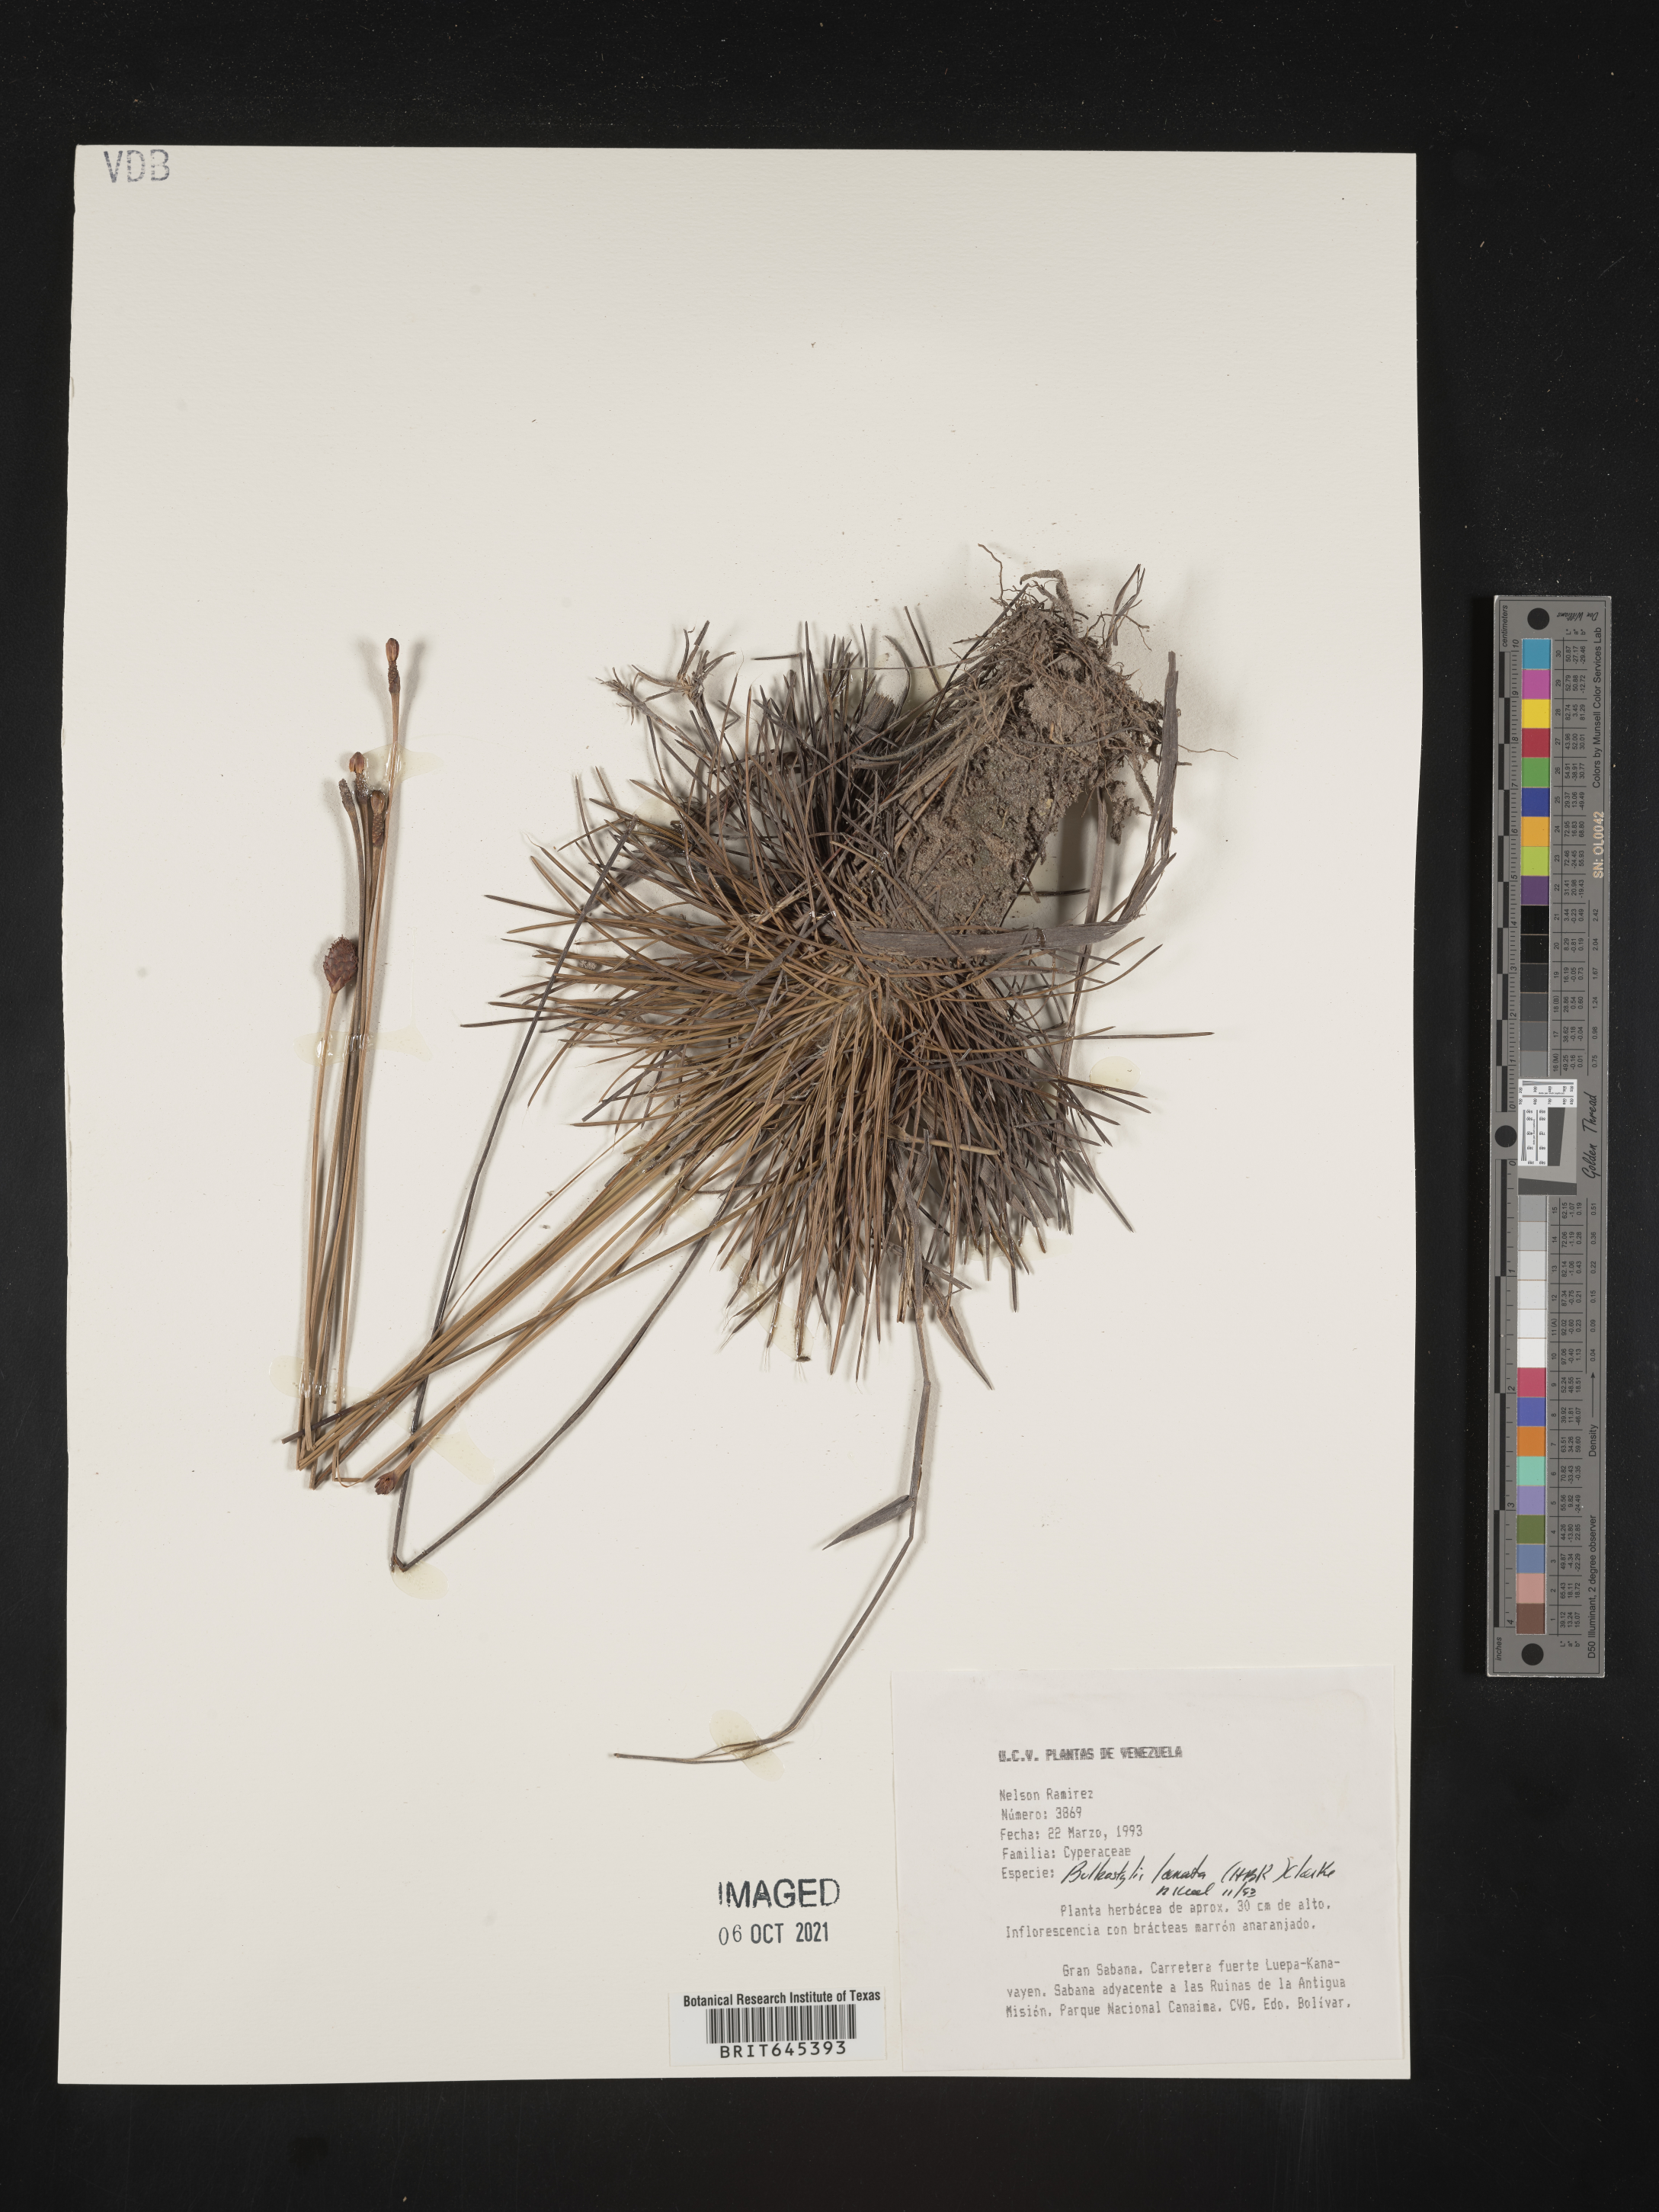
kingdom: Plantae
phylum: Tracheophyta
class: Liliopsida
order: Poales
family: Cyperaceae
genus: Bulbostylis
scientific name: Bulbostylis lanata
